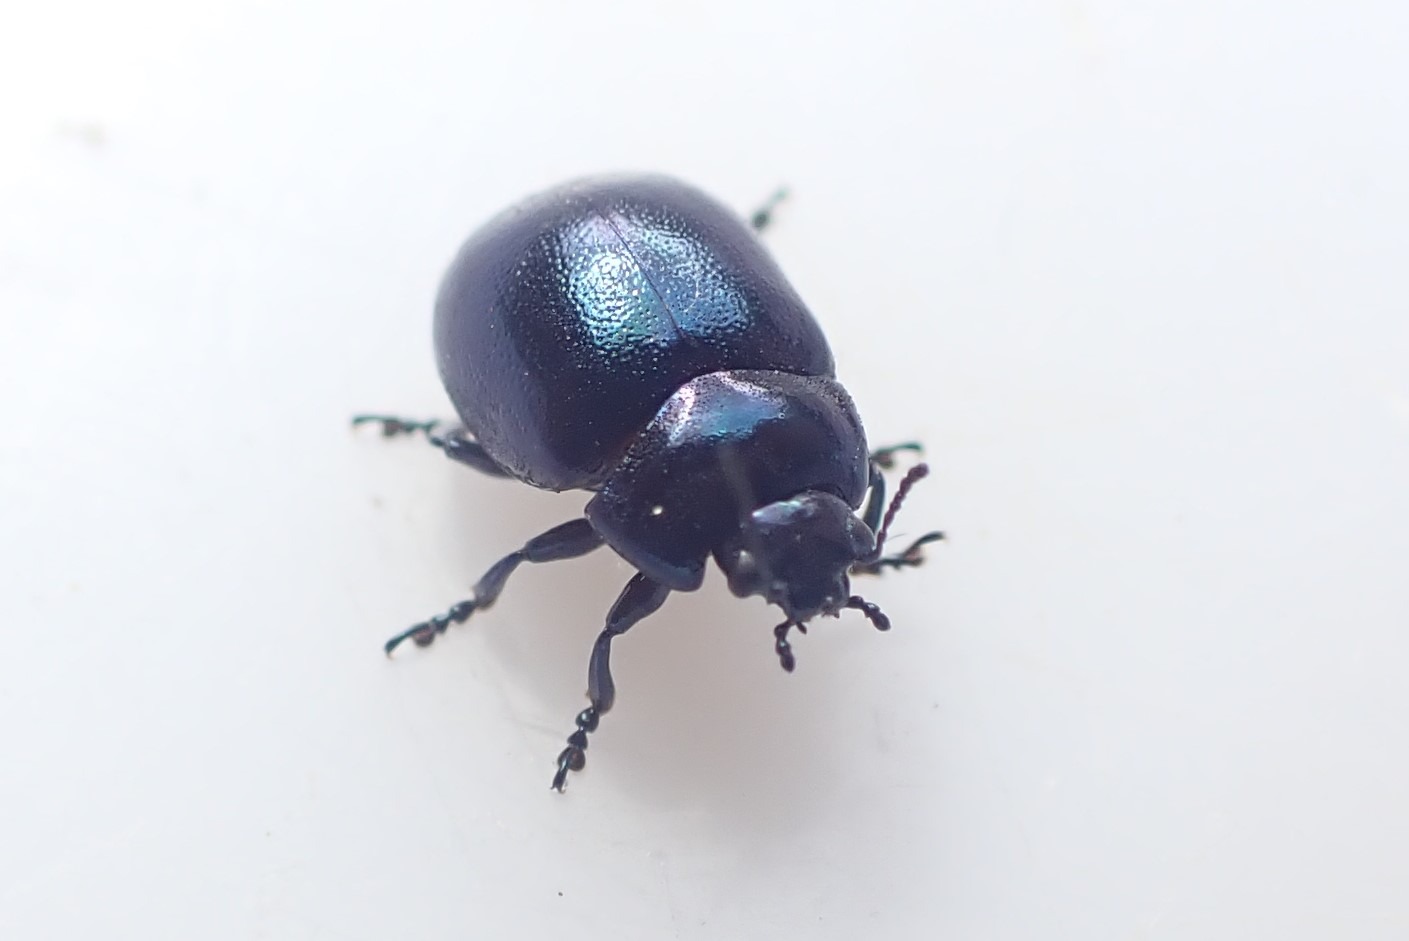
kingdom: Animalia
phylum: Arthropoda
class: Insecta
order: Coleoptera
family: Chrysomelidae
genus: Chrysolina
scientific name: Chrysolina varians
